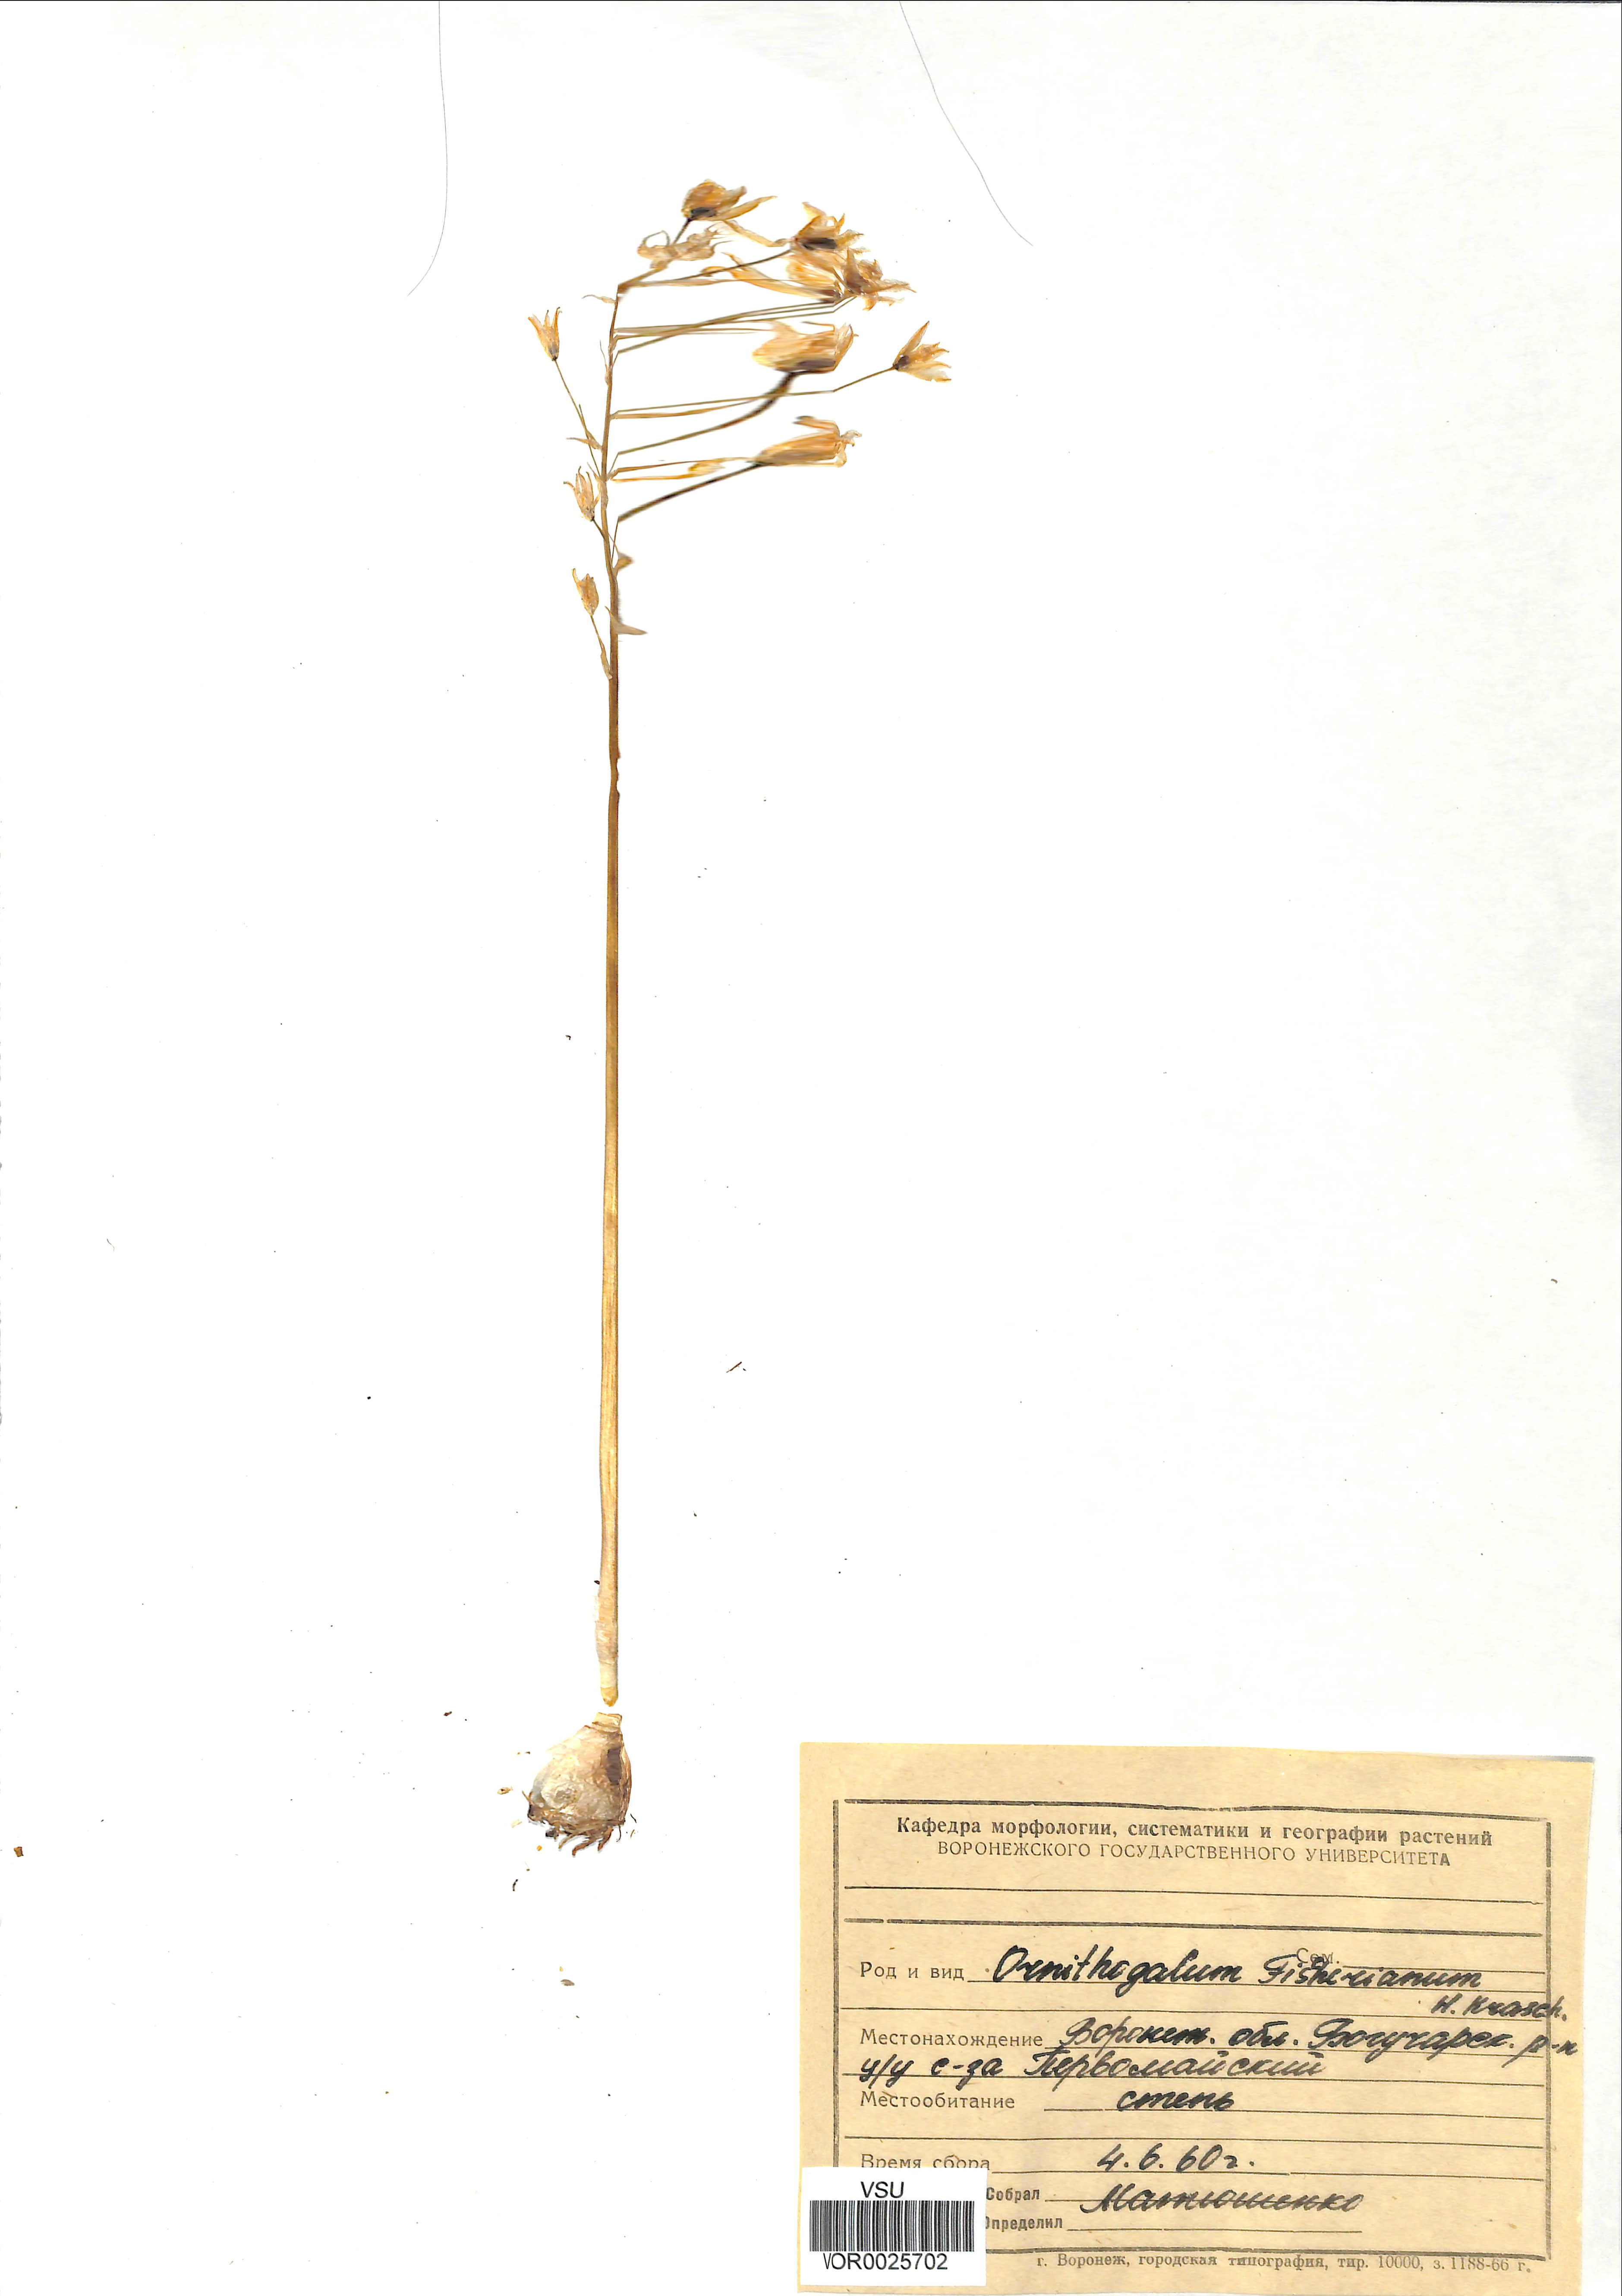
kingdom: Plantae
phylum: Tracheophyta
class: Liliopsida
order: Asparagales
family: Asparagaceae
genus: Ornithogalum
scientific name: Ornithogalum fischerianum
